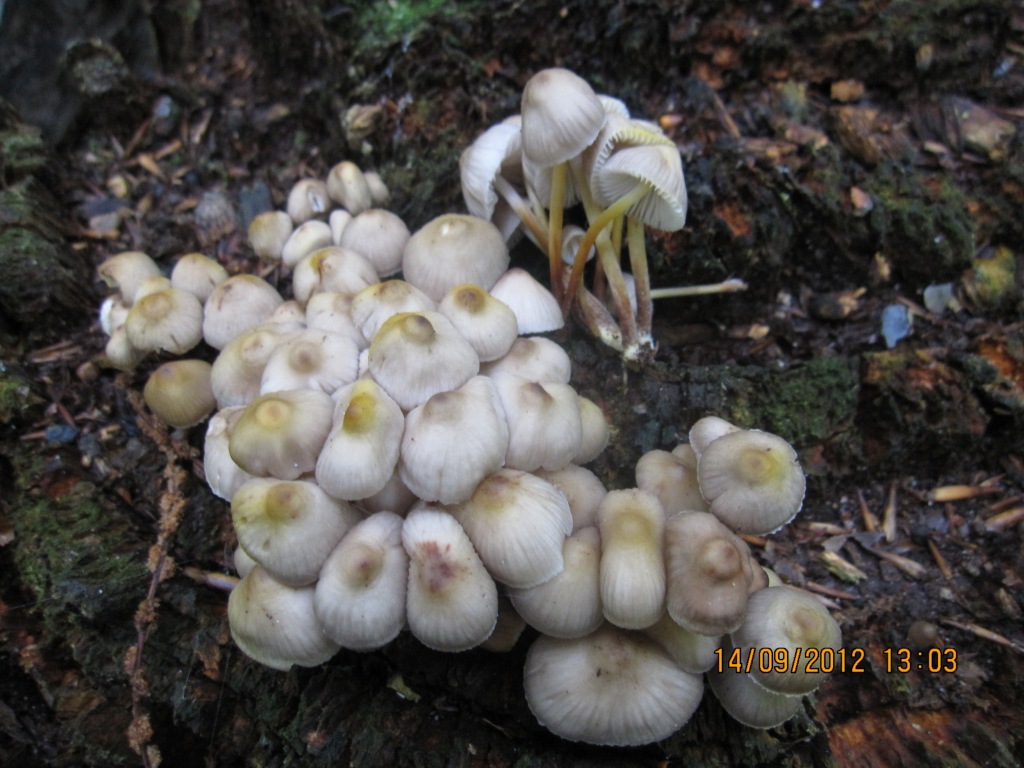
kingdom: Fungi
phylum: Basidiomycota
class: Agaricomycetes
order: Agaricales
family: Mycenaceae
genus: Mycena
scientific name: Mycena inclinata
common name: nikkende huesvamp
